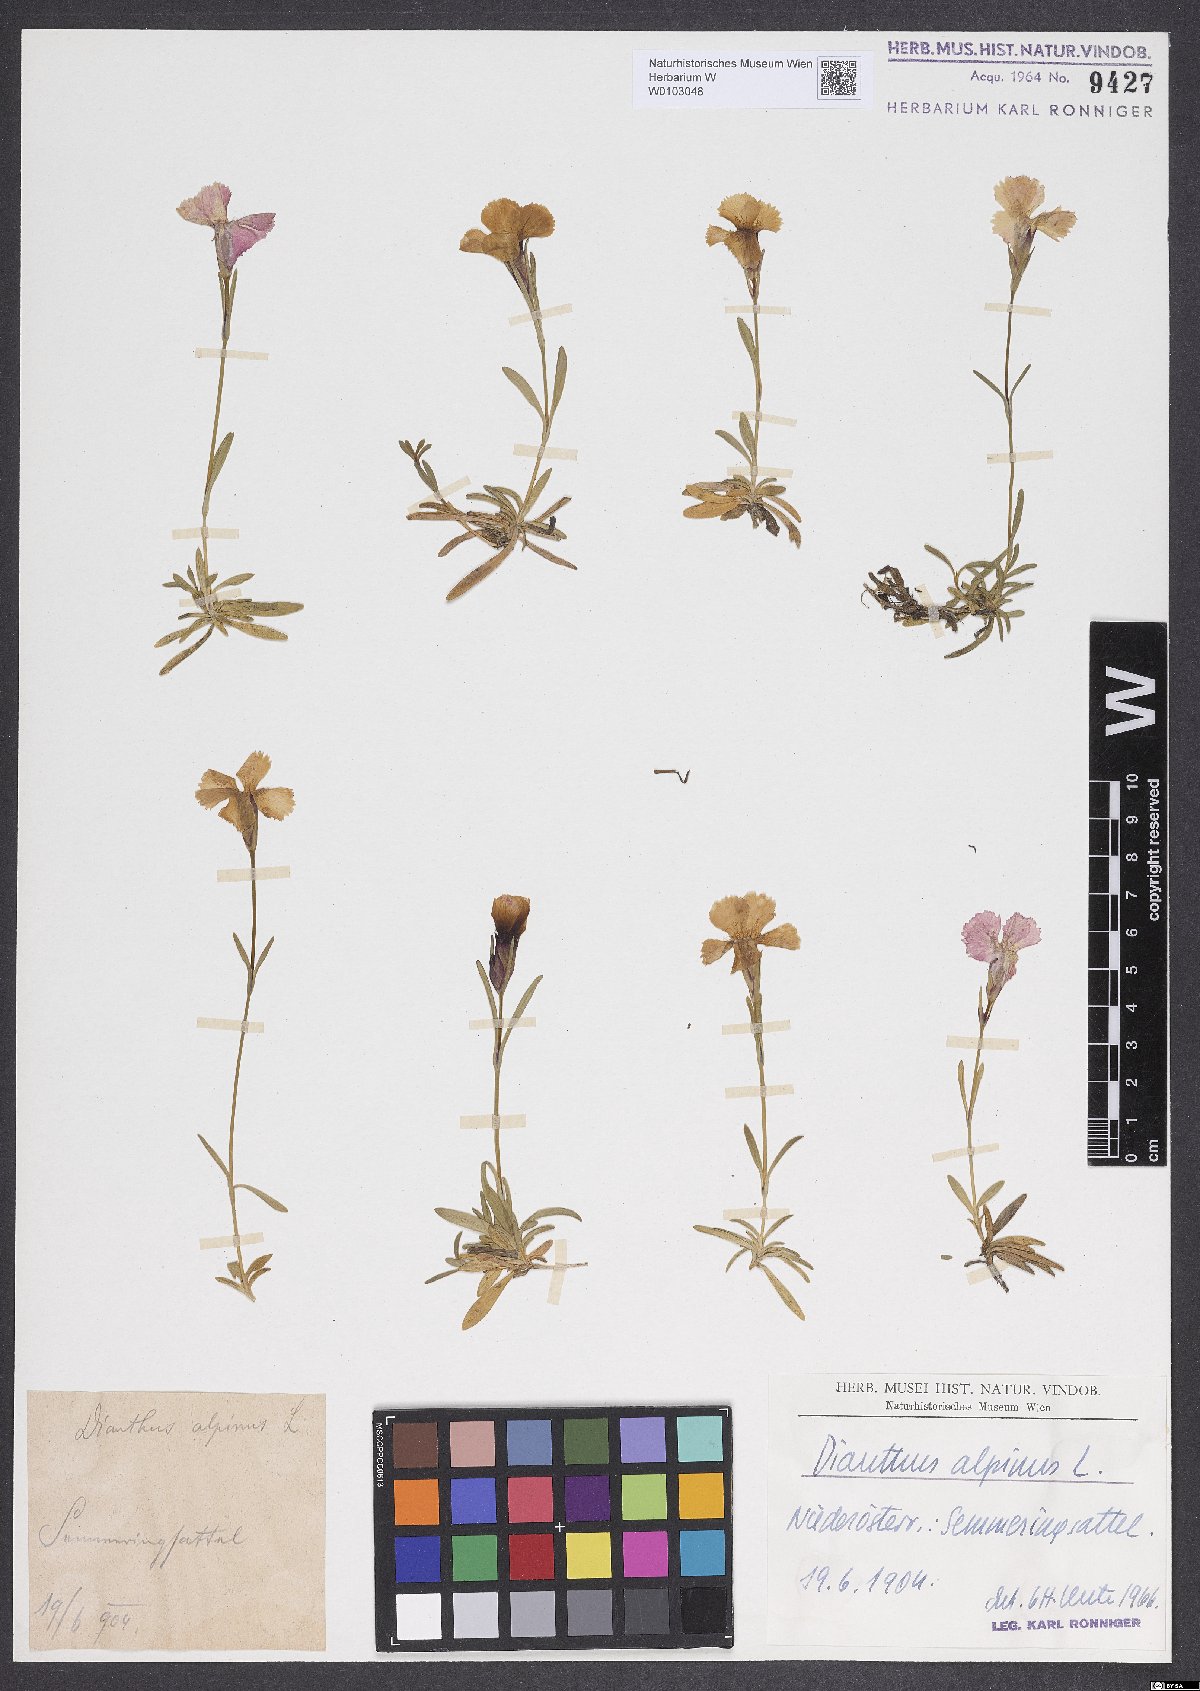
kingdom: Plantae
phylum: Tracheophyta
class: Magnoliopsida
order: Caryophyllales
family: Caryophyllaceae
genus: Dianthus
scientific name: Dianthus alpinus
